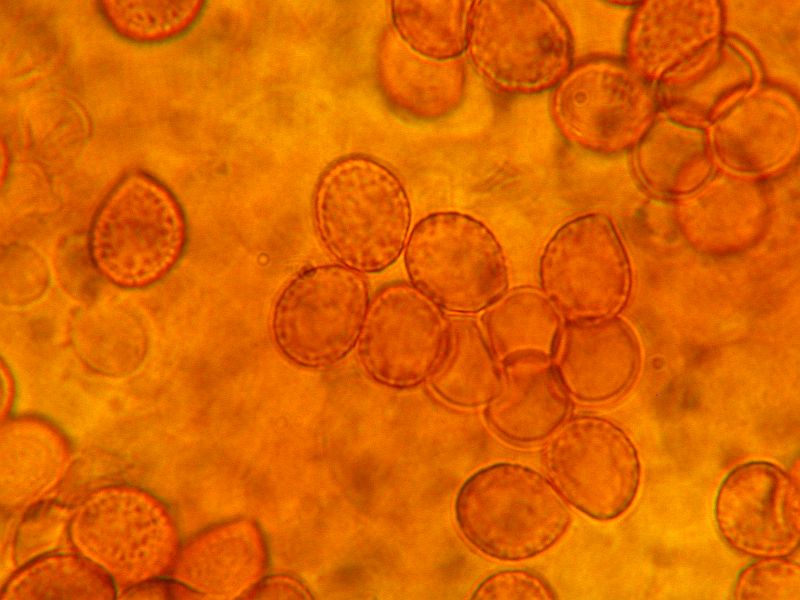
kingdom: Fungi
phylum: Basidiomycota
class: Agaricomycetes
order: Agaricales
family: Cortinariaceae
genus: Cortinarius
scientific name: Cortinarius betulinus
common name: akvamarin-slørhat
